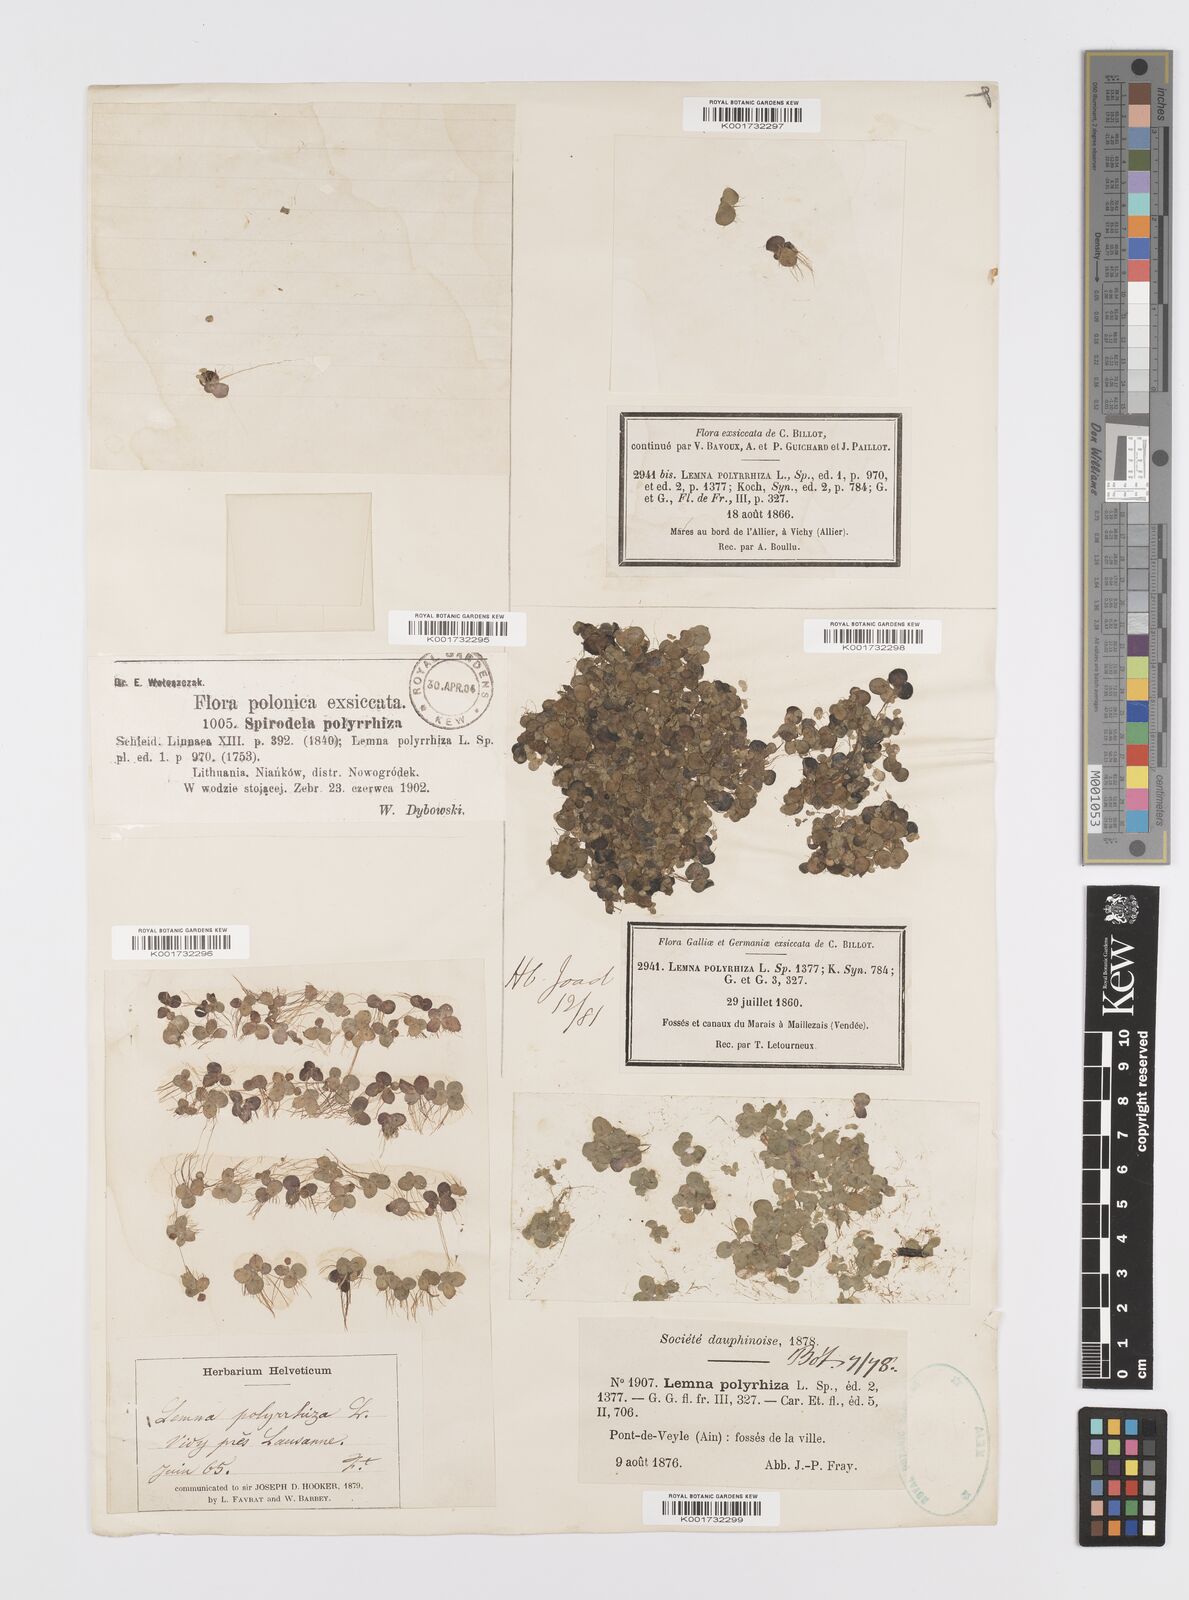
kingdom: Plantae
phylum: Tracheophyta
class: Liliopsida
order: Alismatales
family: Araceae
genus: Spirodela
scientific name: Spirodela polyrhiza
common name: Great duckweed
